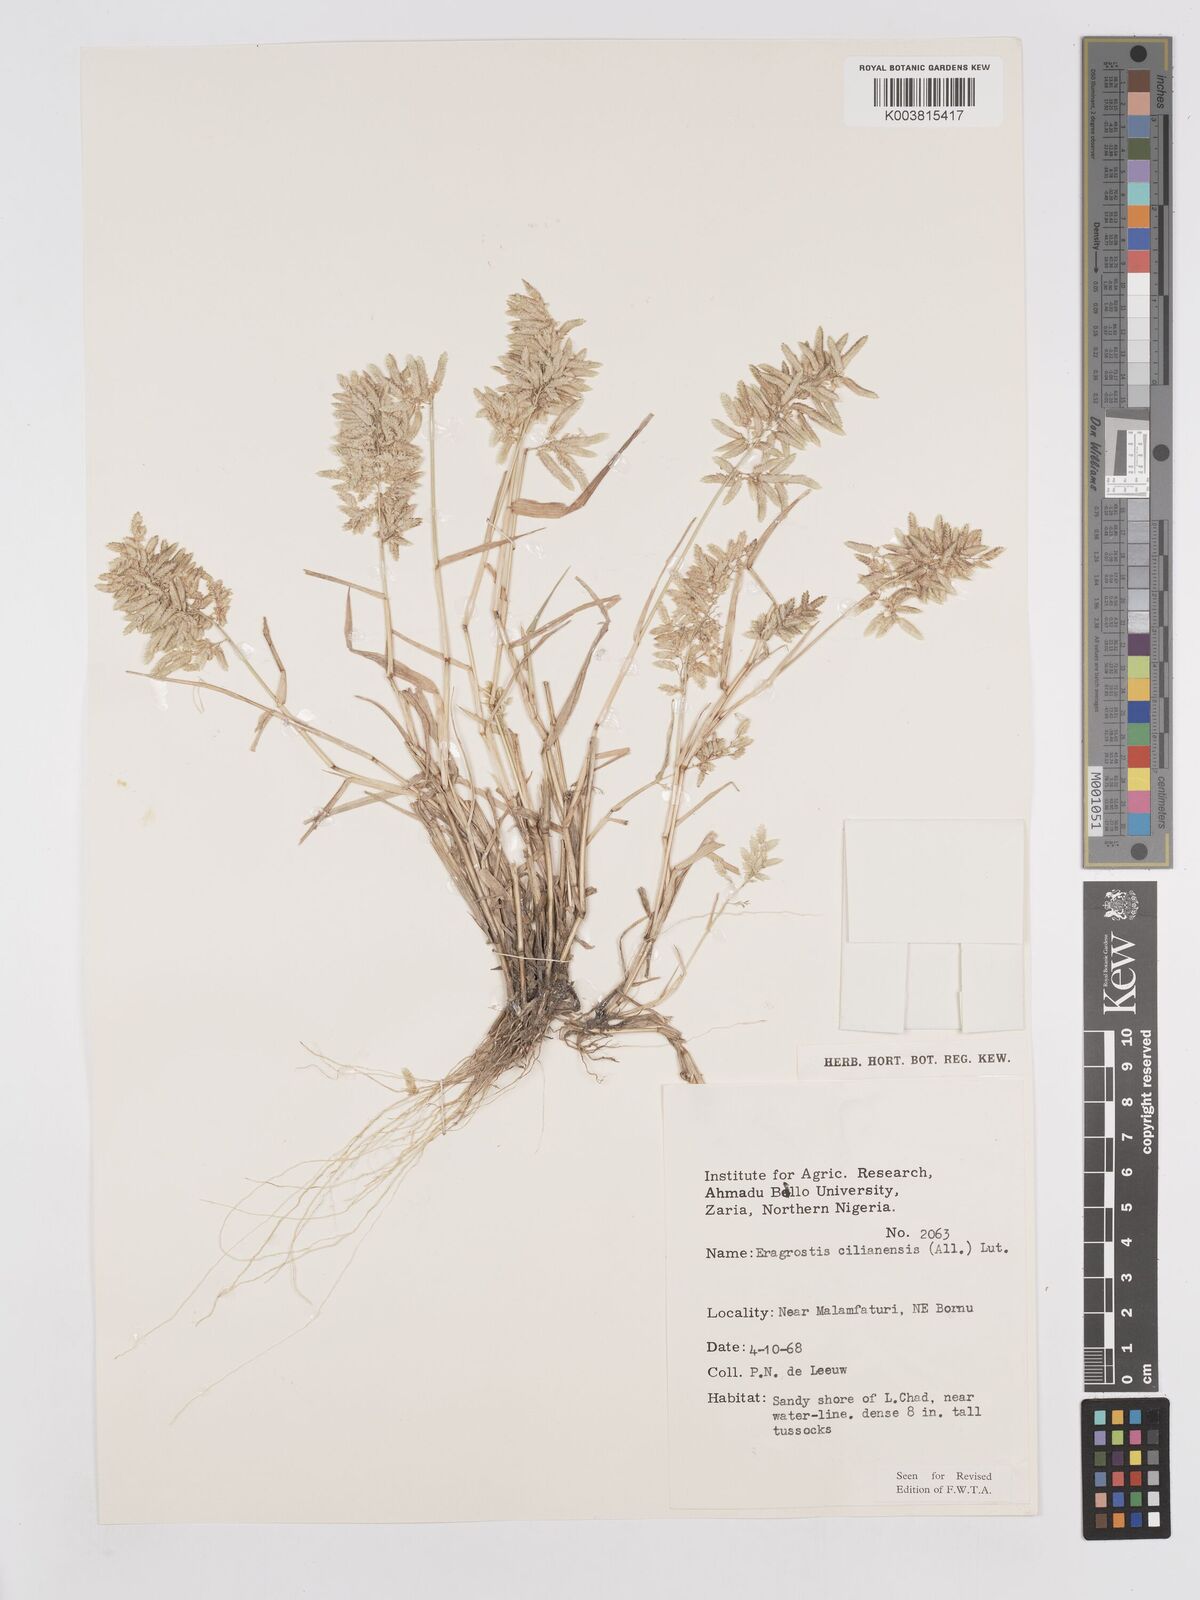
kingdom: Plantae
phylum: Tracheophyta
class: Liliopsida
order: Poales
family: Poaceae
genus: Eragrostis
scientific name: Eragrostis cilianensis
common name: Stinkgrass
